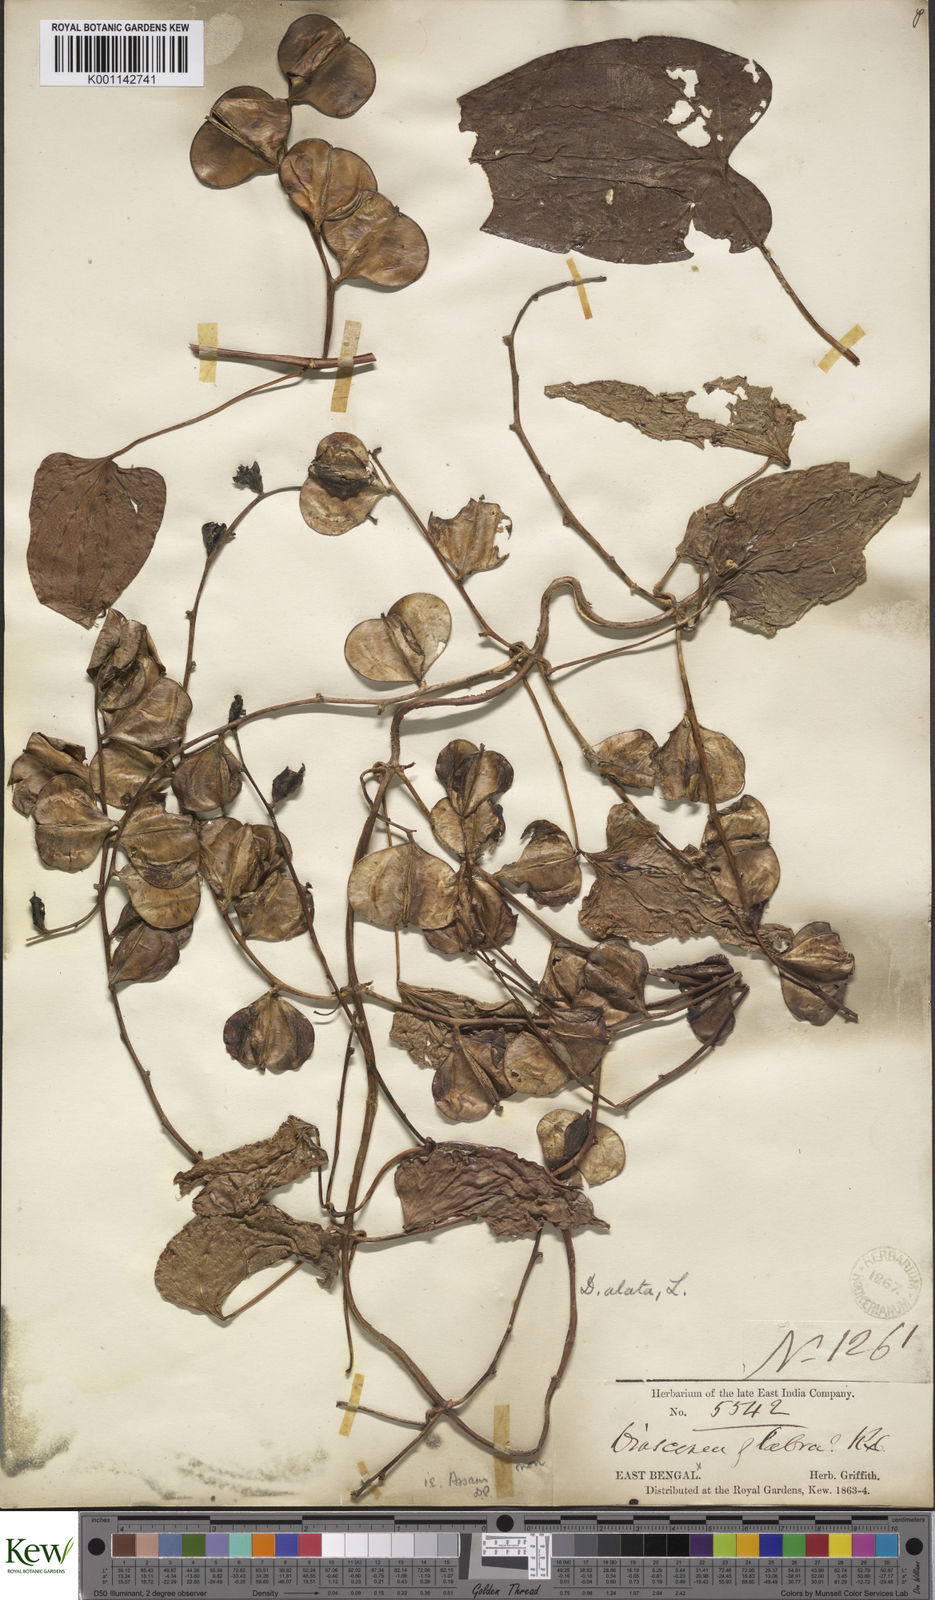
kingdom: Plantae
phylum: Tracheophyta
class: Liliopsida
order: Dioscoreales
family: Dioscoreaceae
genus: Dioscorea
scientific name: Dioscorea
